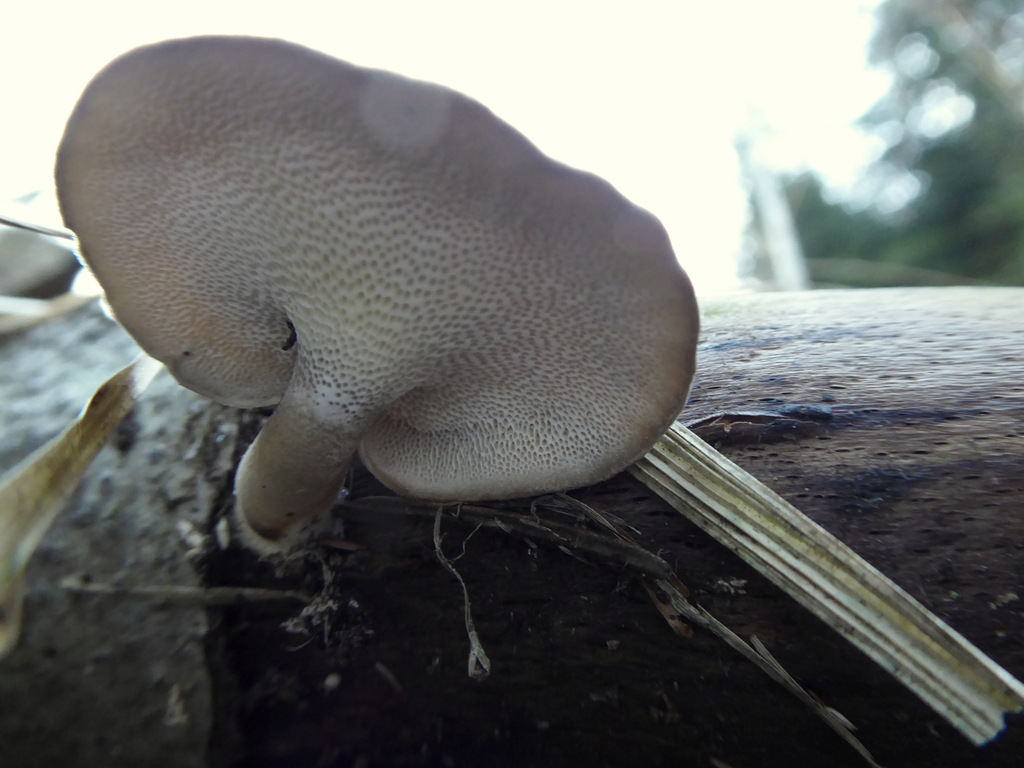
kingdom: Fungi
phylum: Basidiomycota
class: Agaricomycetes
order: Polyporales
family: Polyporaceae
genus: Lentinus
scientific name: Lentinus brumalis
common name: vinter-stilkporesvamp
